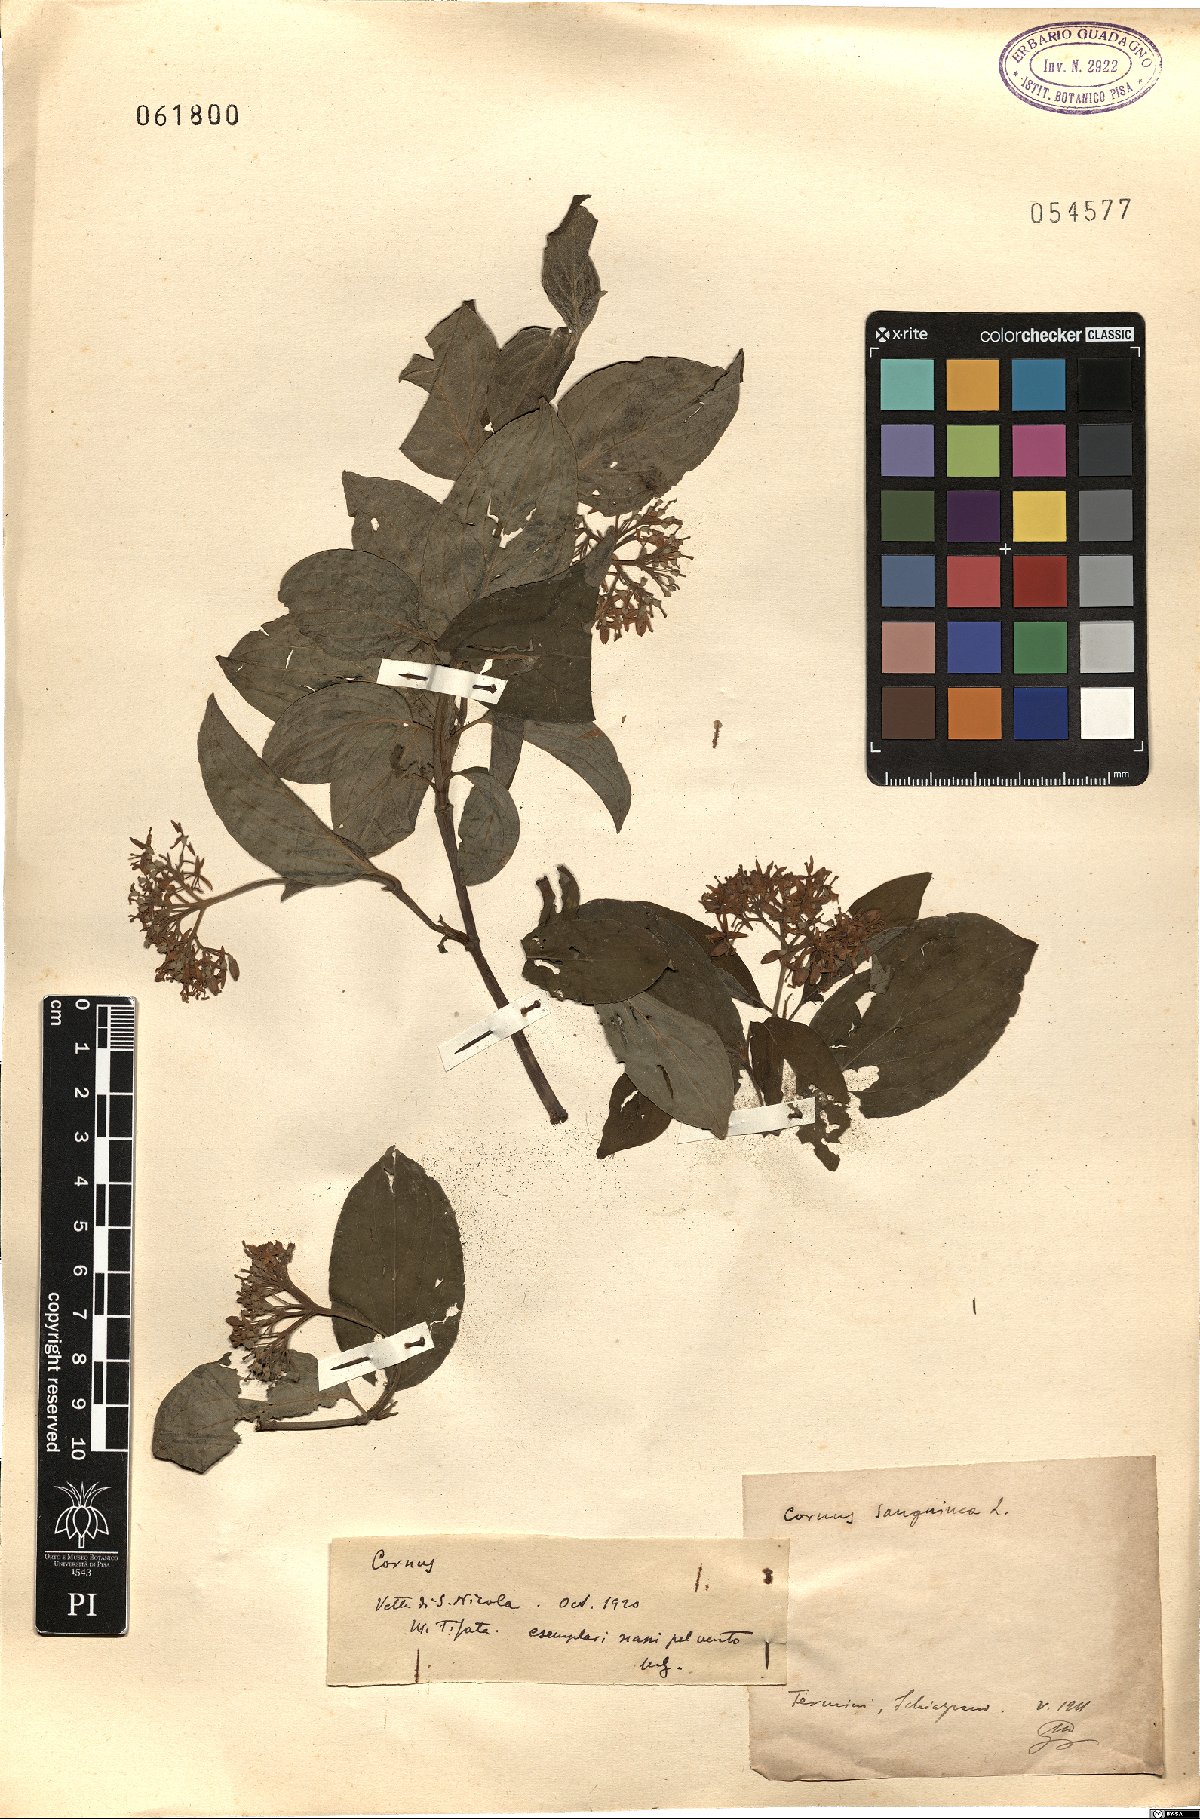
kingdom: Plantae
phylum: Tracheophyta
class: Magnoliopsida
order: Cornales
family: Cornaceae
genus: Cornus
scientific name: Cornus
